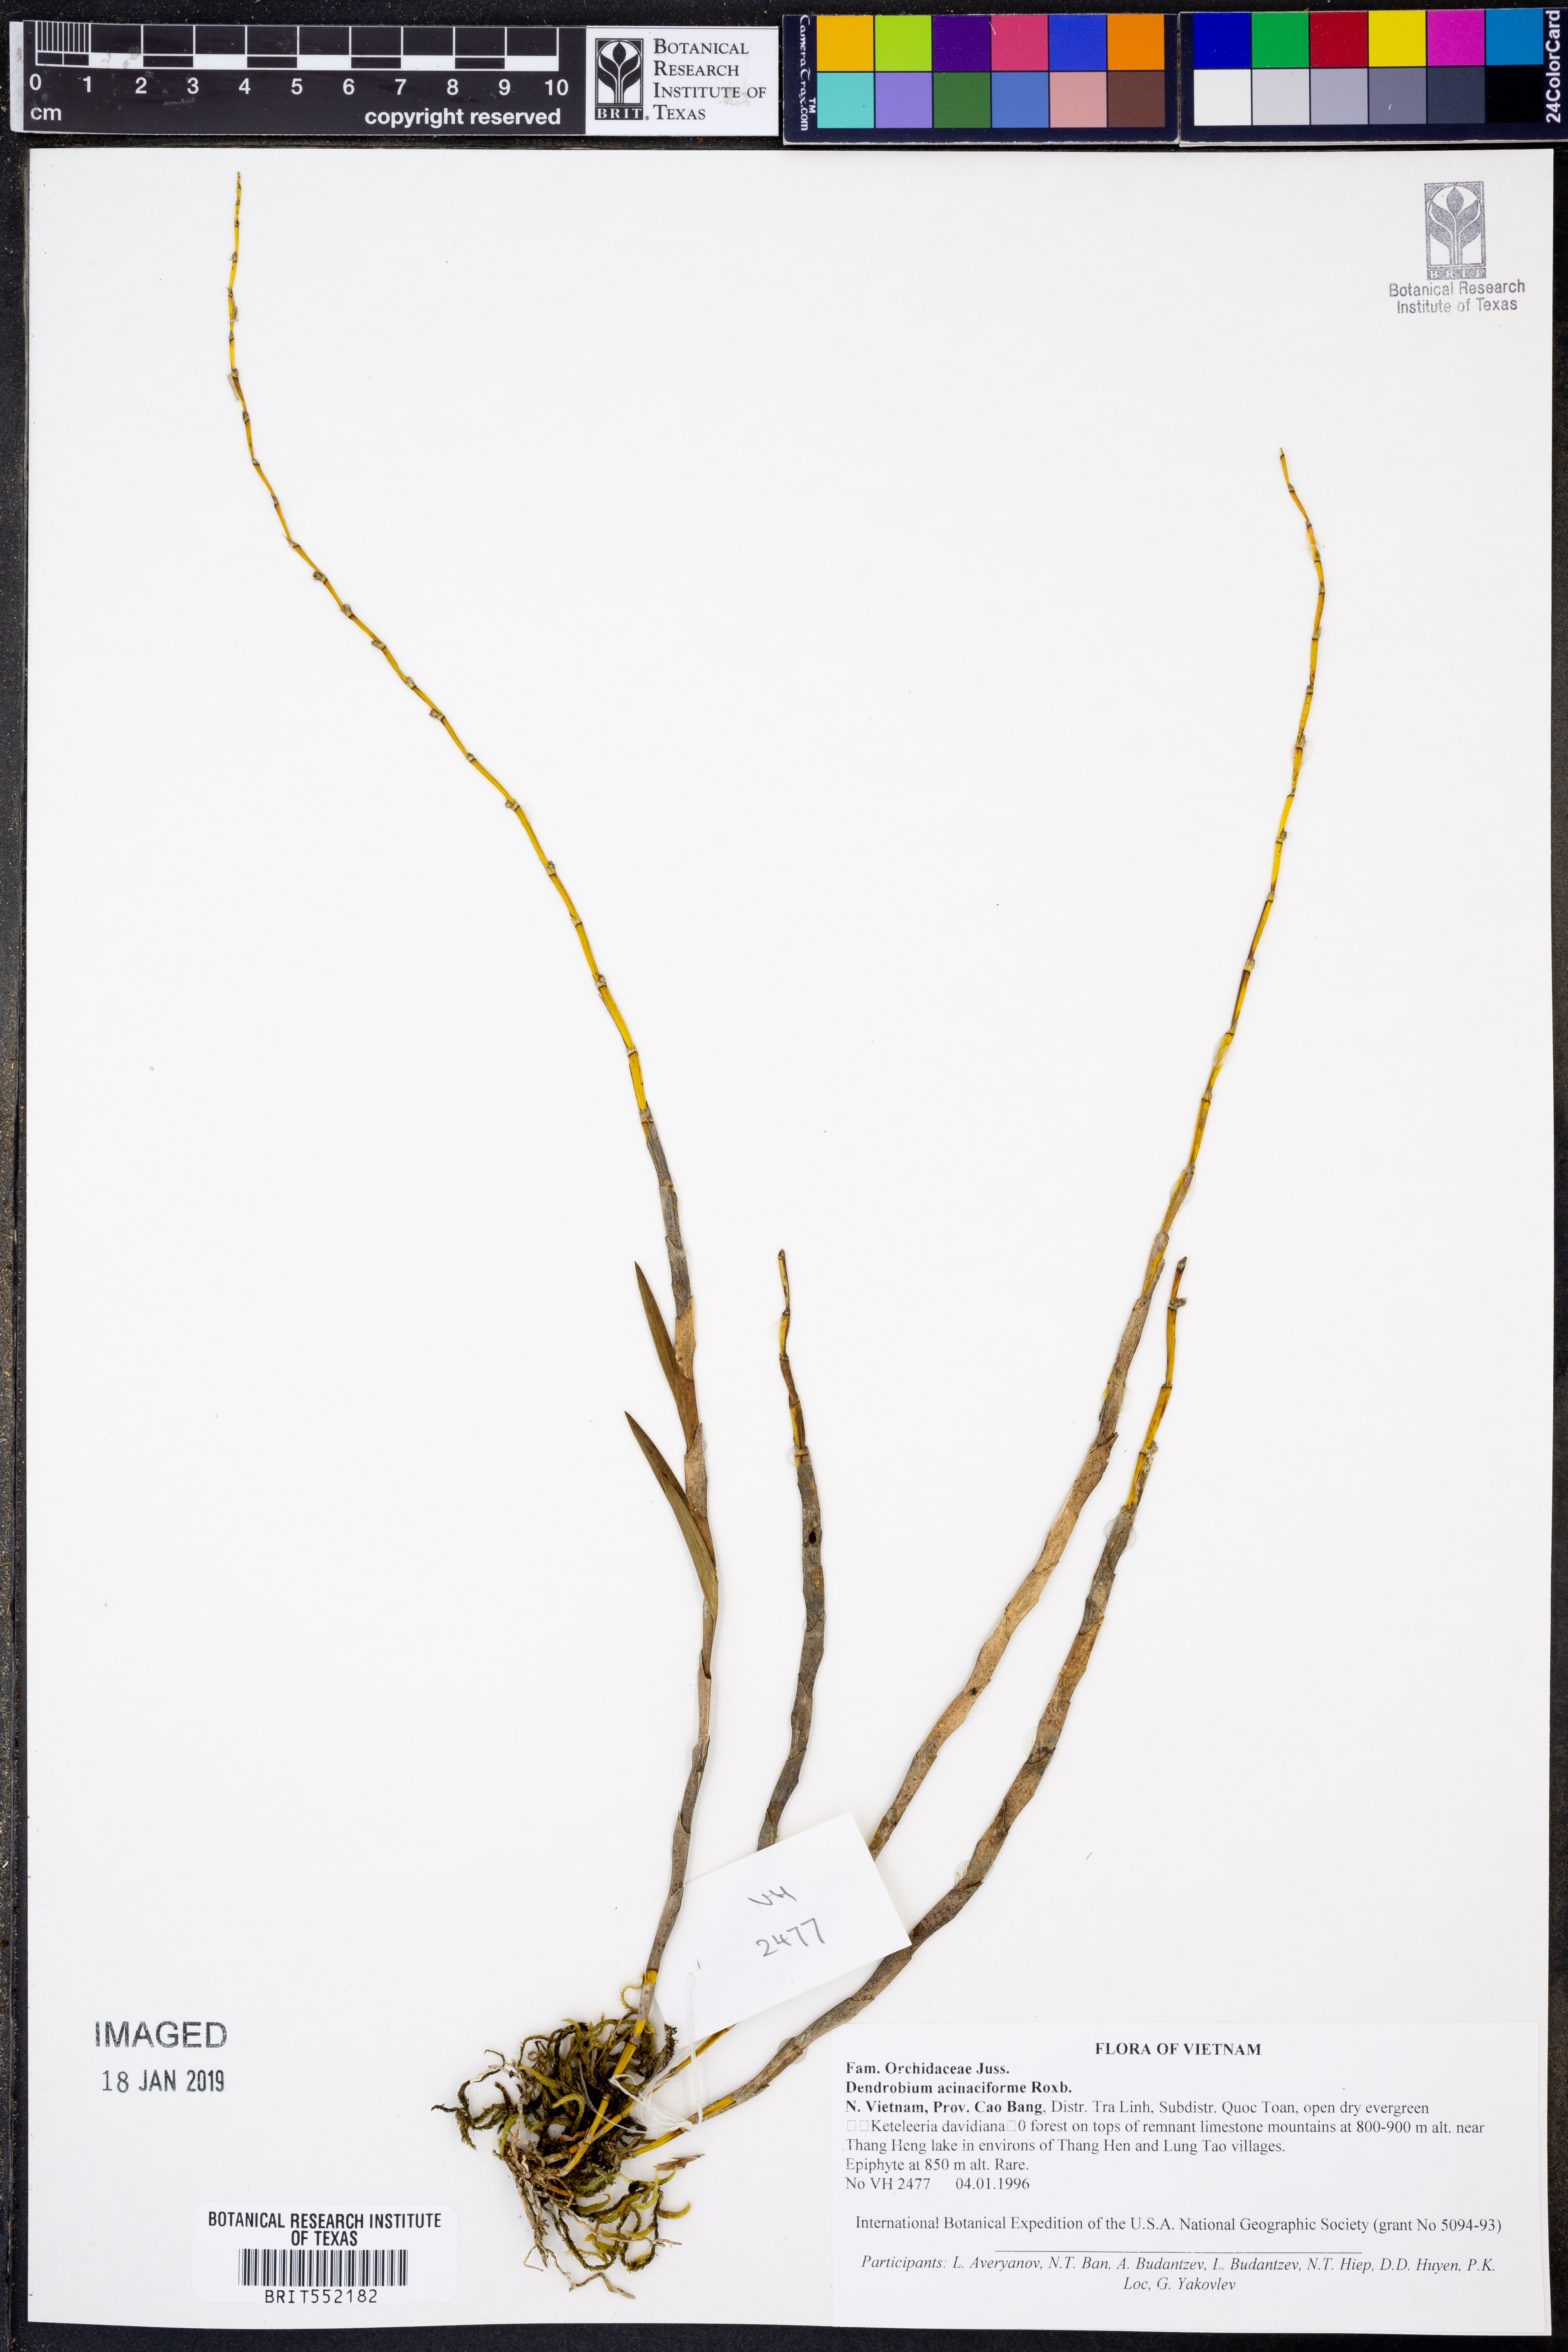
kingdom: Plantae
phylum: Tracheophyta
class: Liliopsida
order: Asparagales
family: Orchidaceae
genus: Dendrobium
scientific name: Dendrobium acinaciforme
